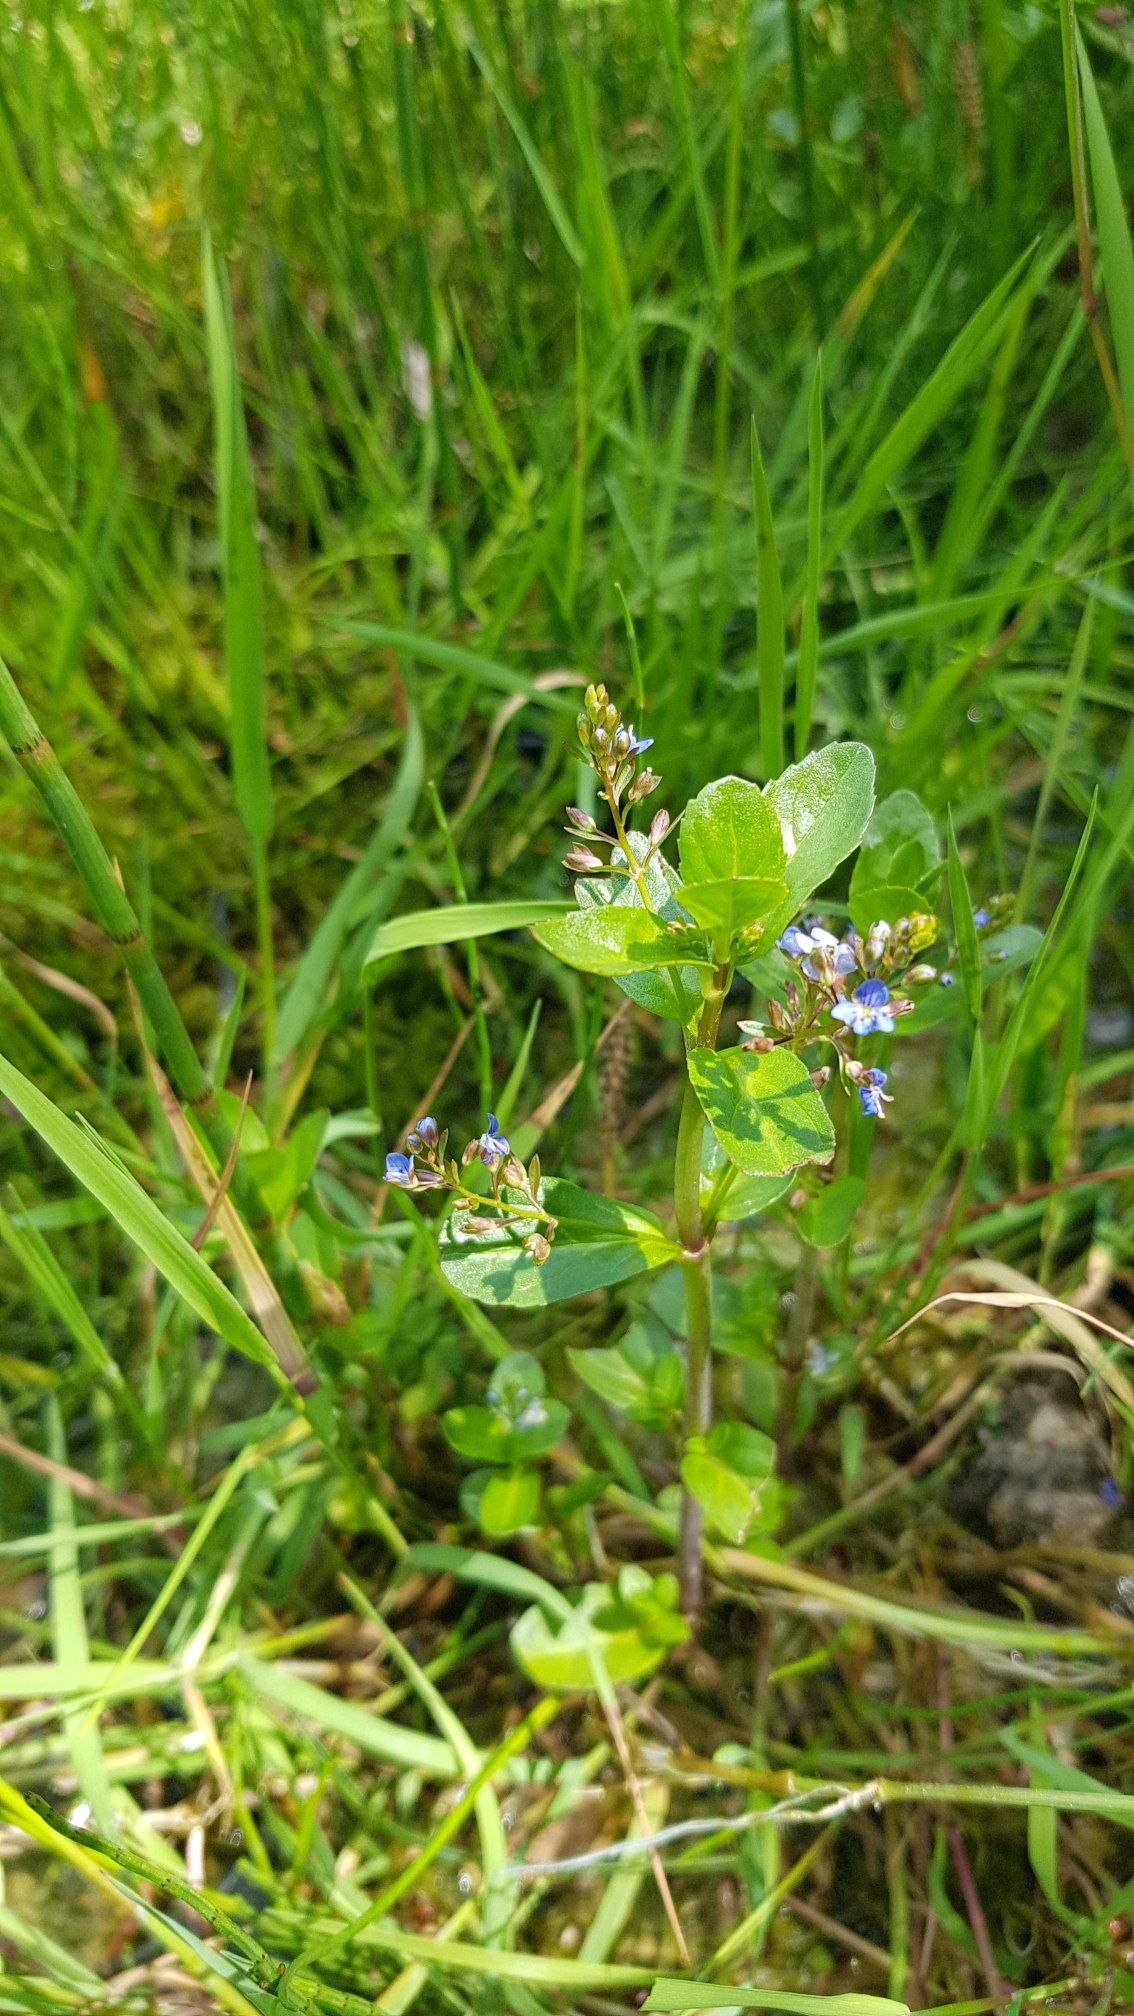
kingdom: Plantae
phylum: Tracheophyta
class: Magnoliopsida
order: Lamiales
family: Plantaginaceae
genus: Veronica
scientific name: Veronica beccabunga
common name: Tykbladet ærenpris
